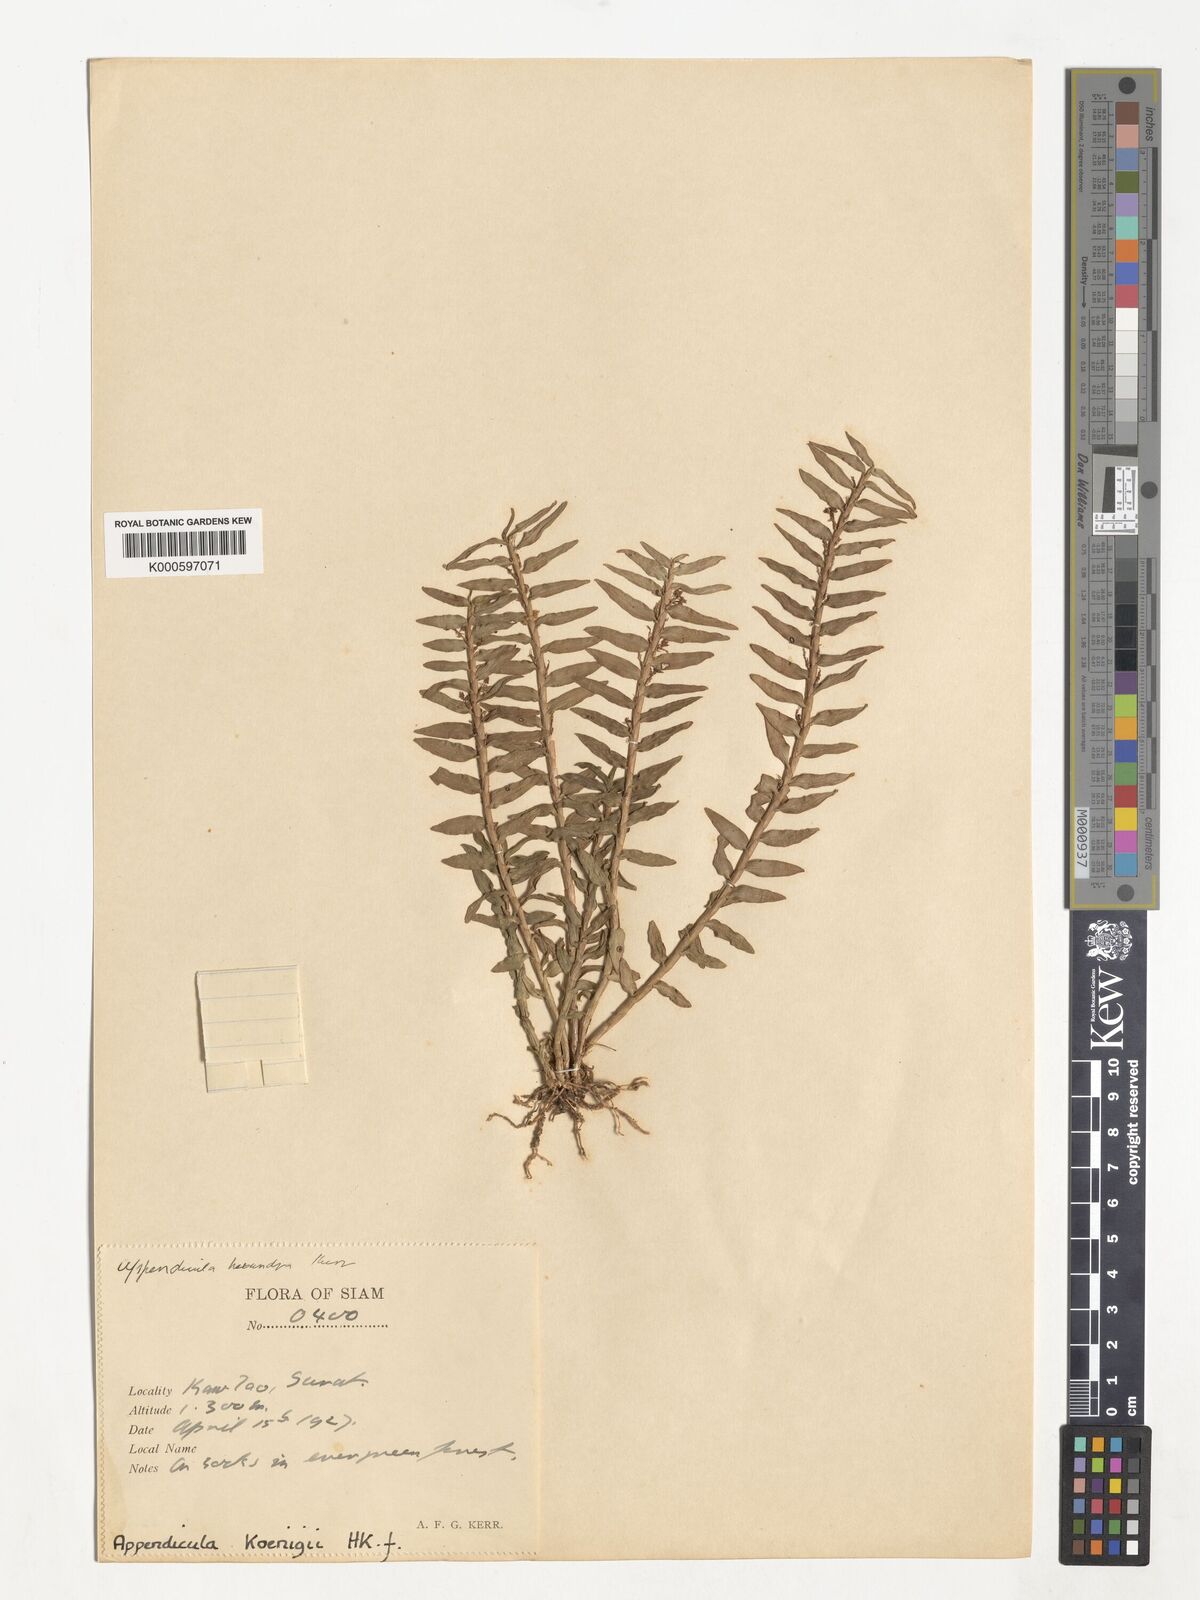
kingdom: Plantae
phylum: Tracheophyta
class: Liliopsida
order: Asparagales
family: Orchidaceae
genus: Appendicula
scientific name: Appendicula
